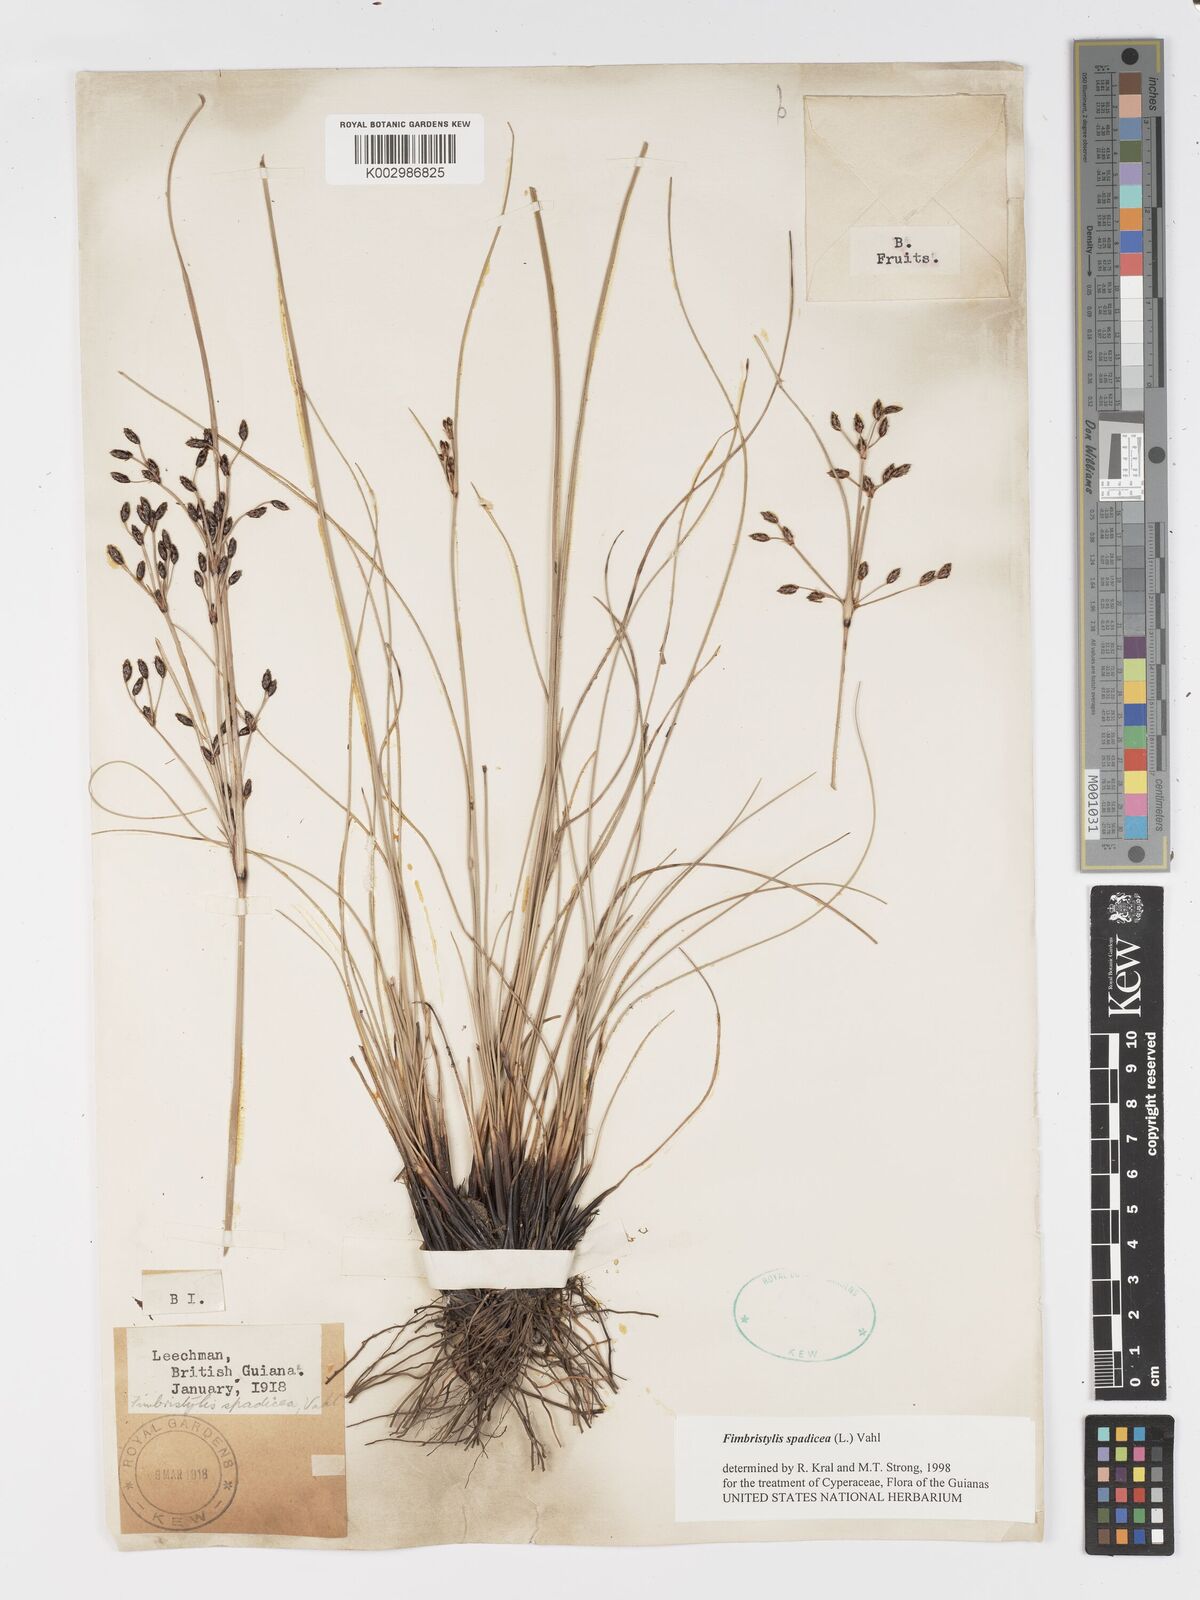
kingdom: Plantae
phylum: Tracheophyta
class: Liliopsida
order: Poales
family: Cyperaceae
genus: Fimbristylis
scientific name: Fimbristylis spadicea
